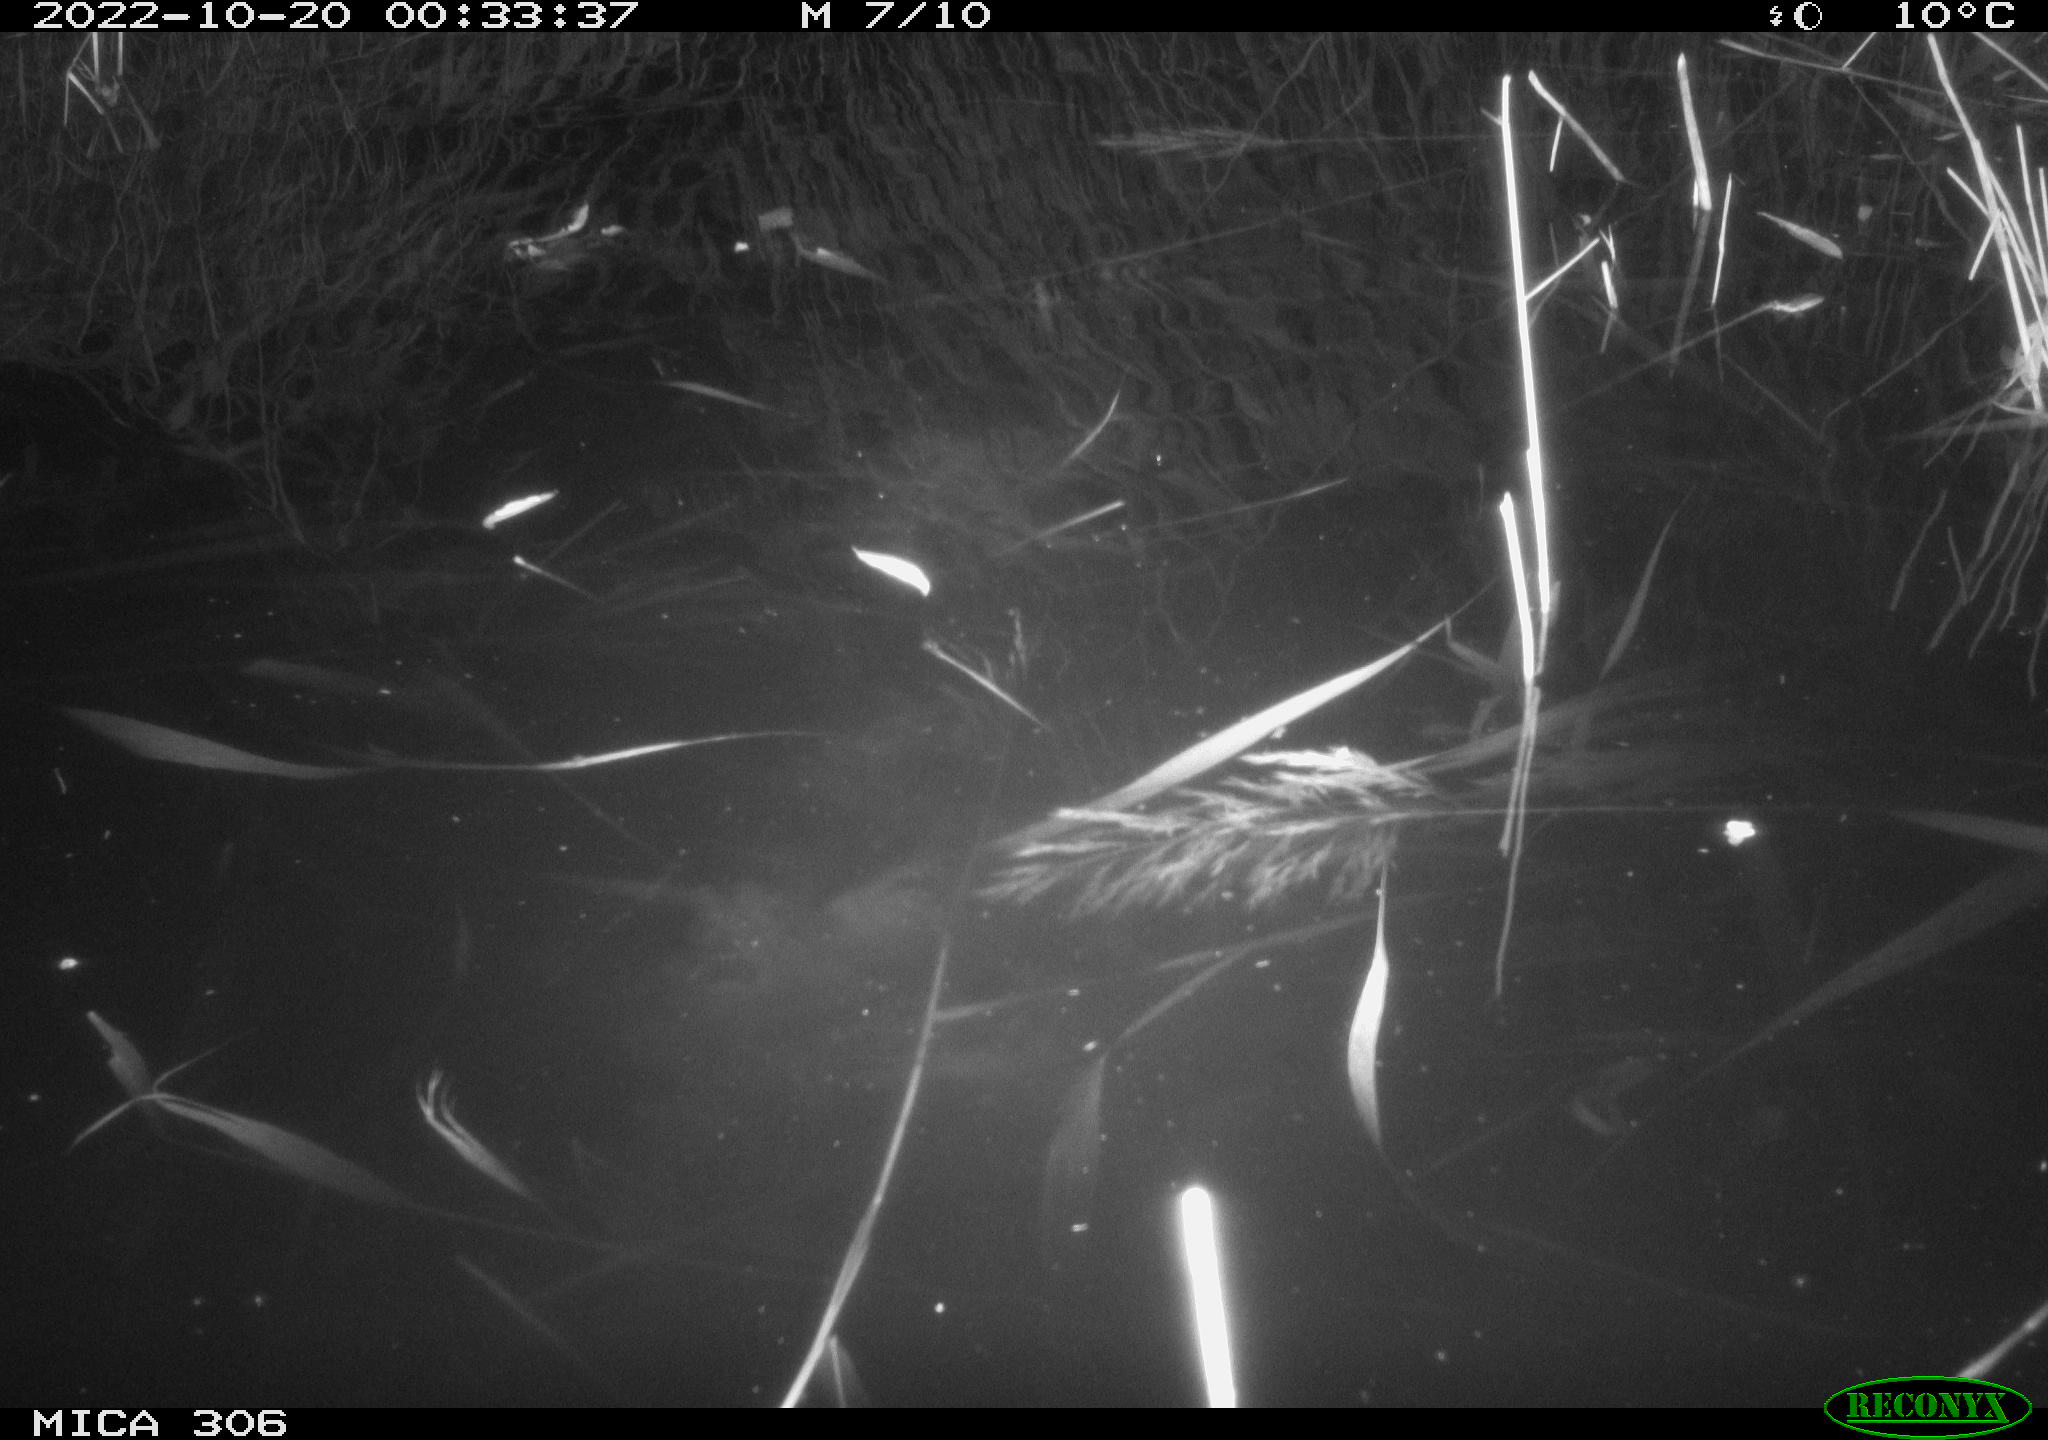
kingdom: Animalia
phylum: Chordata
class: Mammalia
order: Rodentia
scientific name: Rodentia
